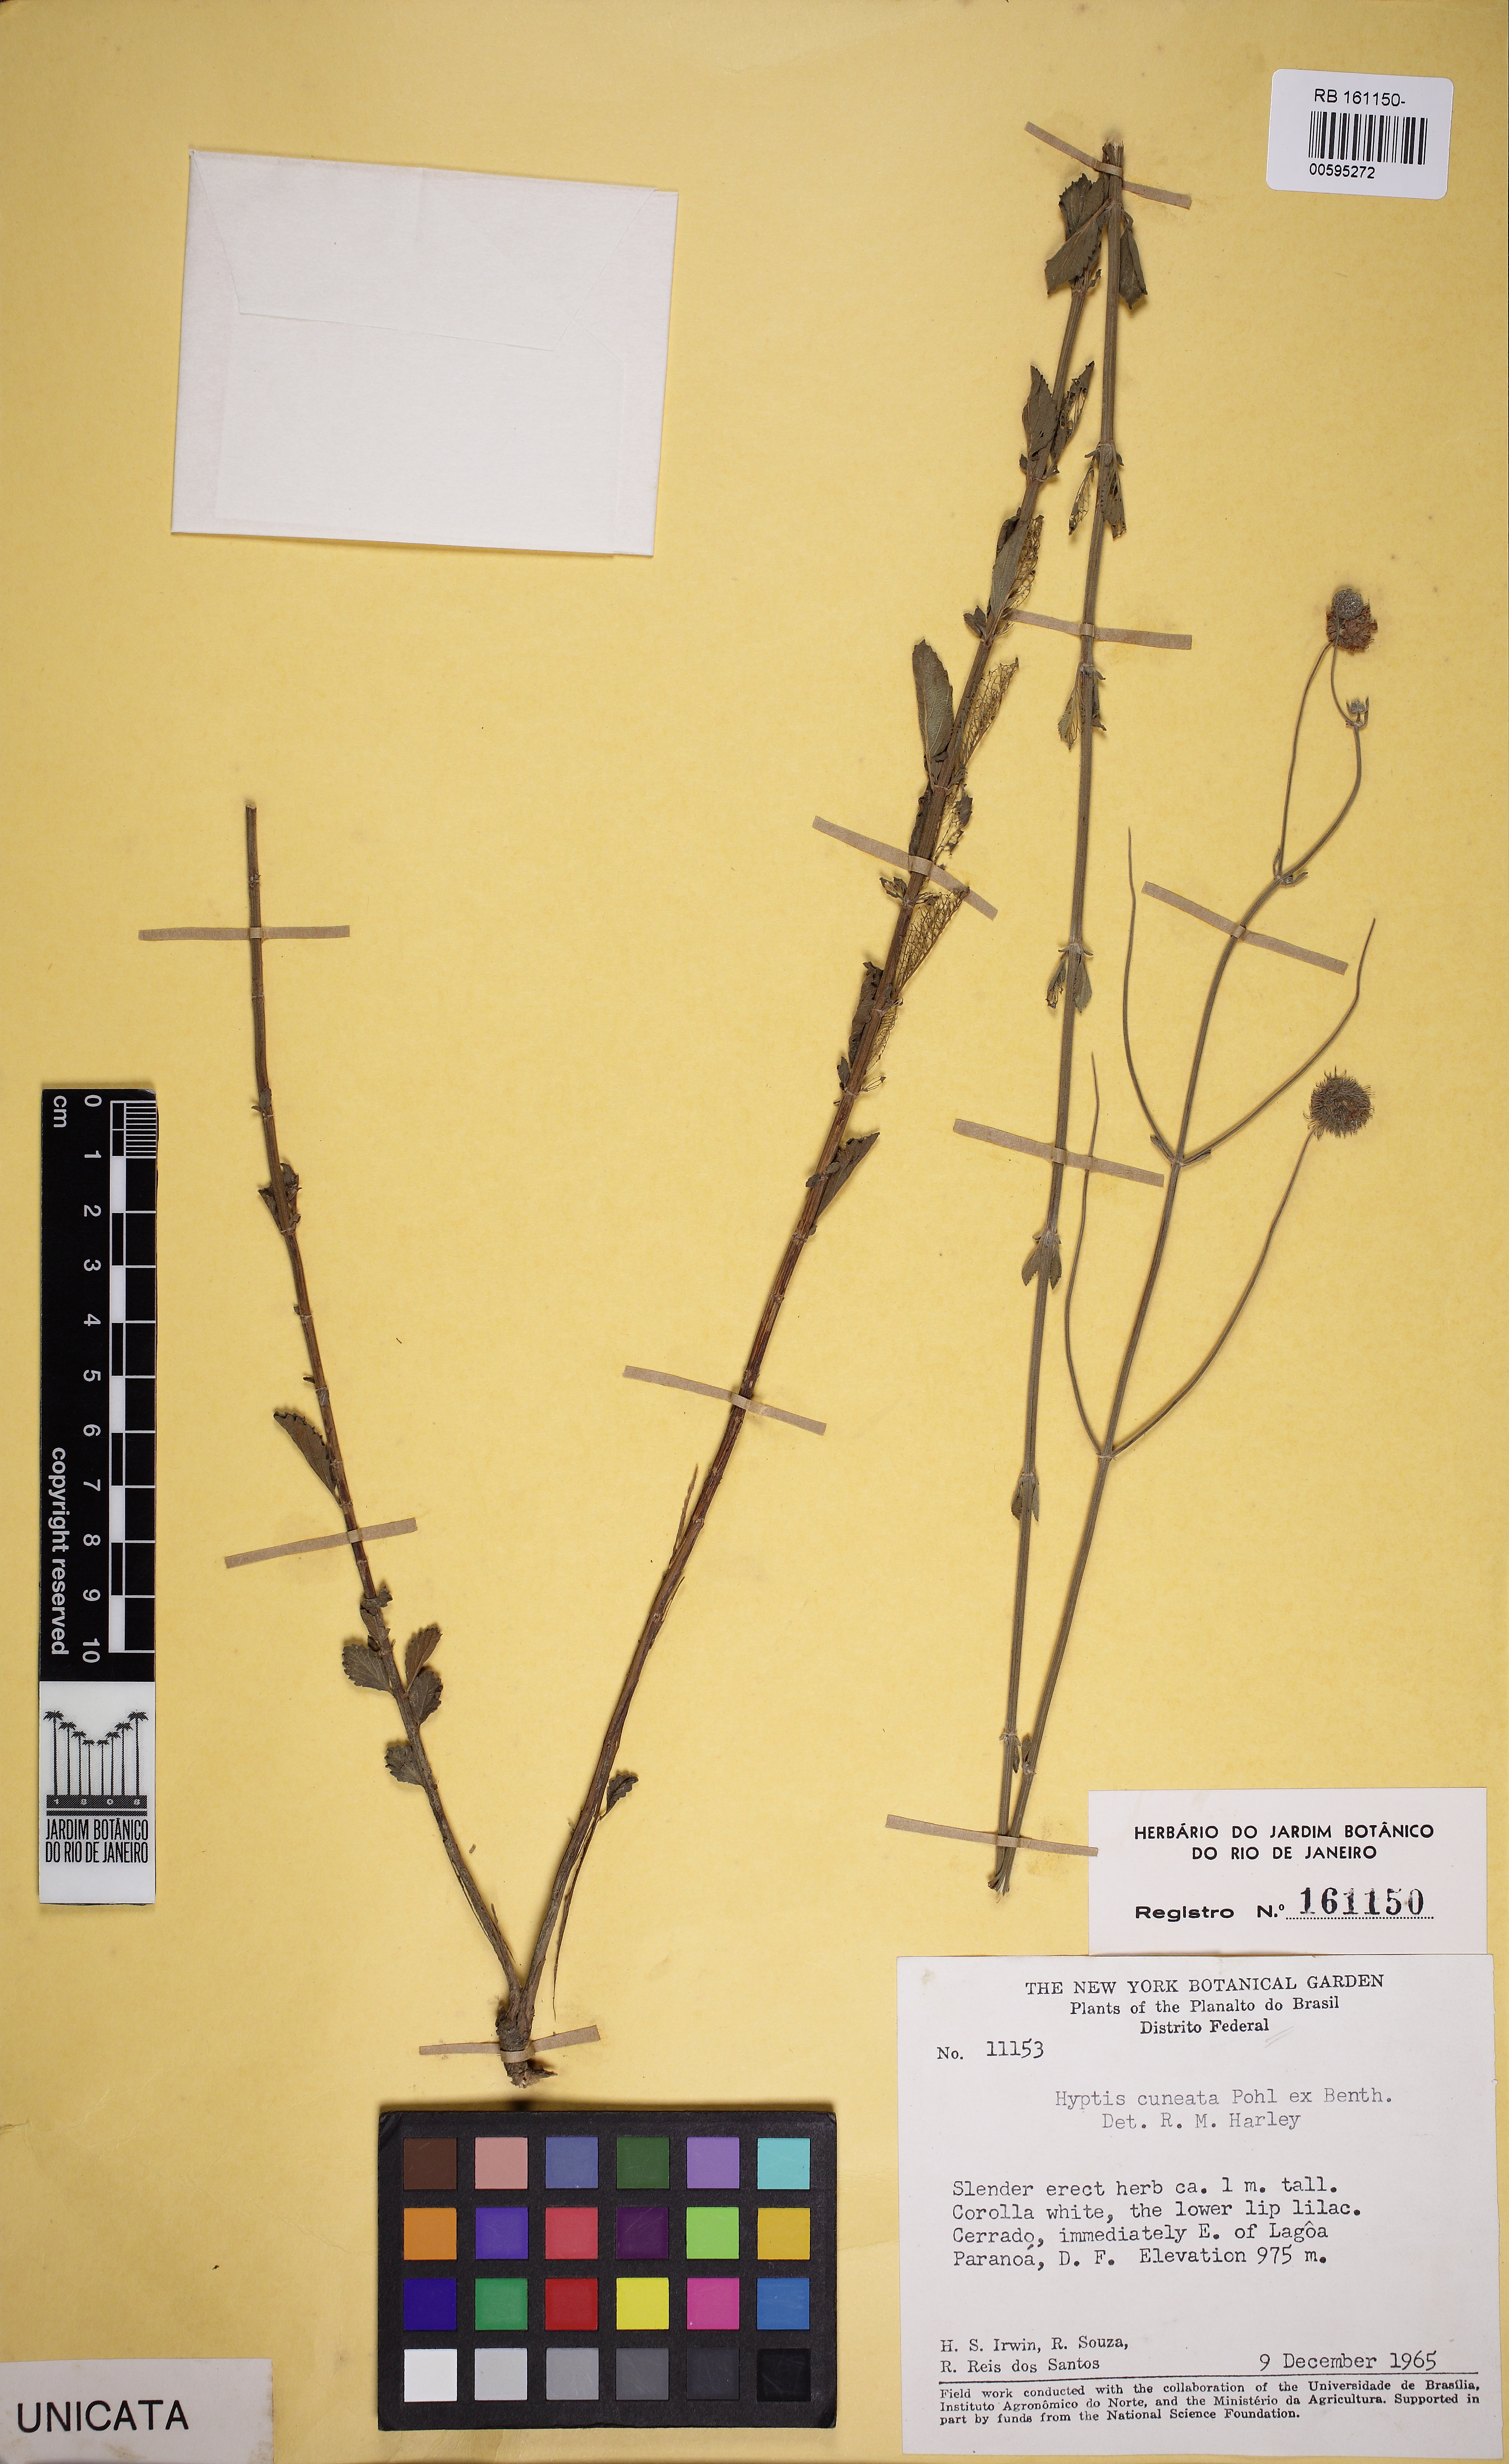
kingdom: Plantae
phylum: Tracheophyta
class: Magnoliopsida
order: Lamiales
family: Lamiaceae
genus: Cyanocephalus
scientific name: Cyanocephalus cuneatus
